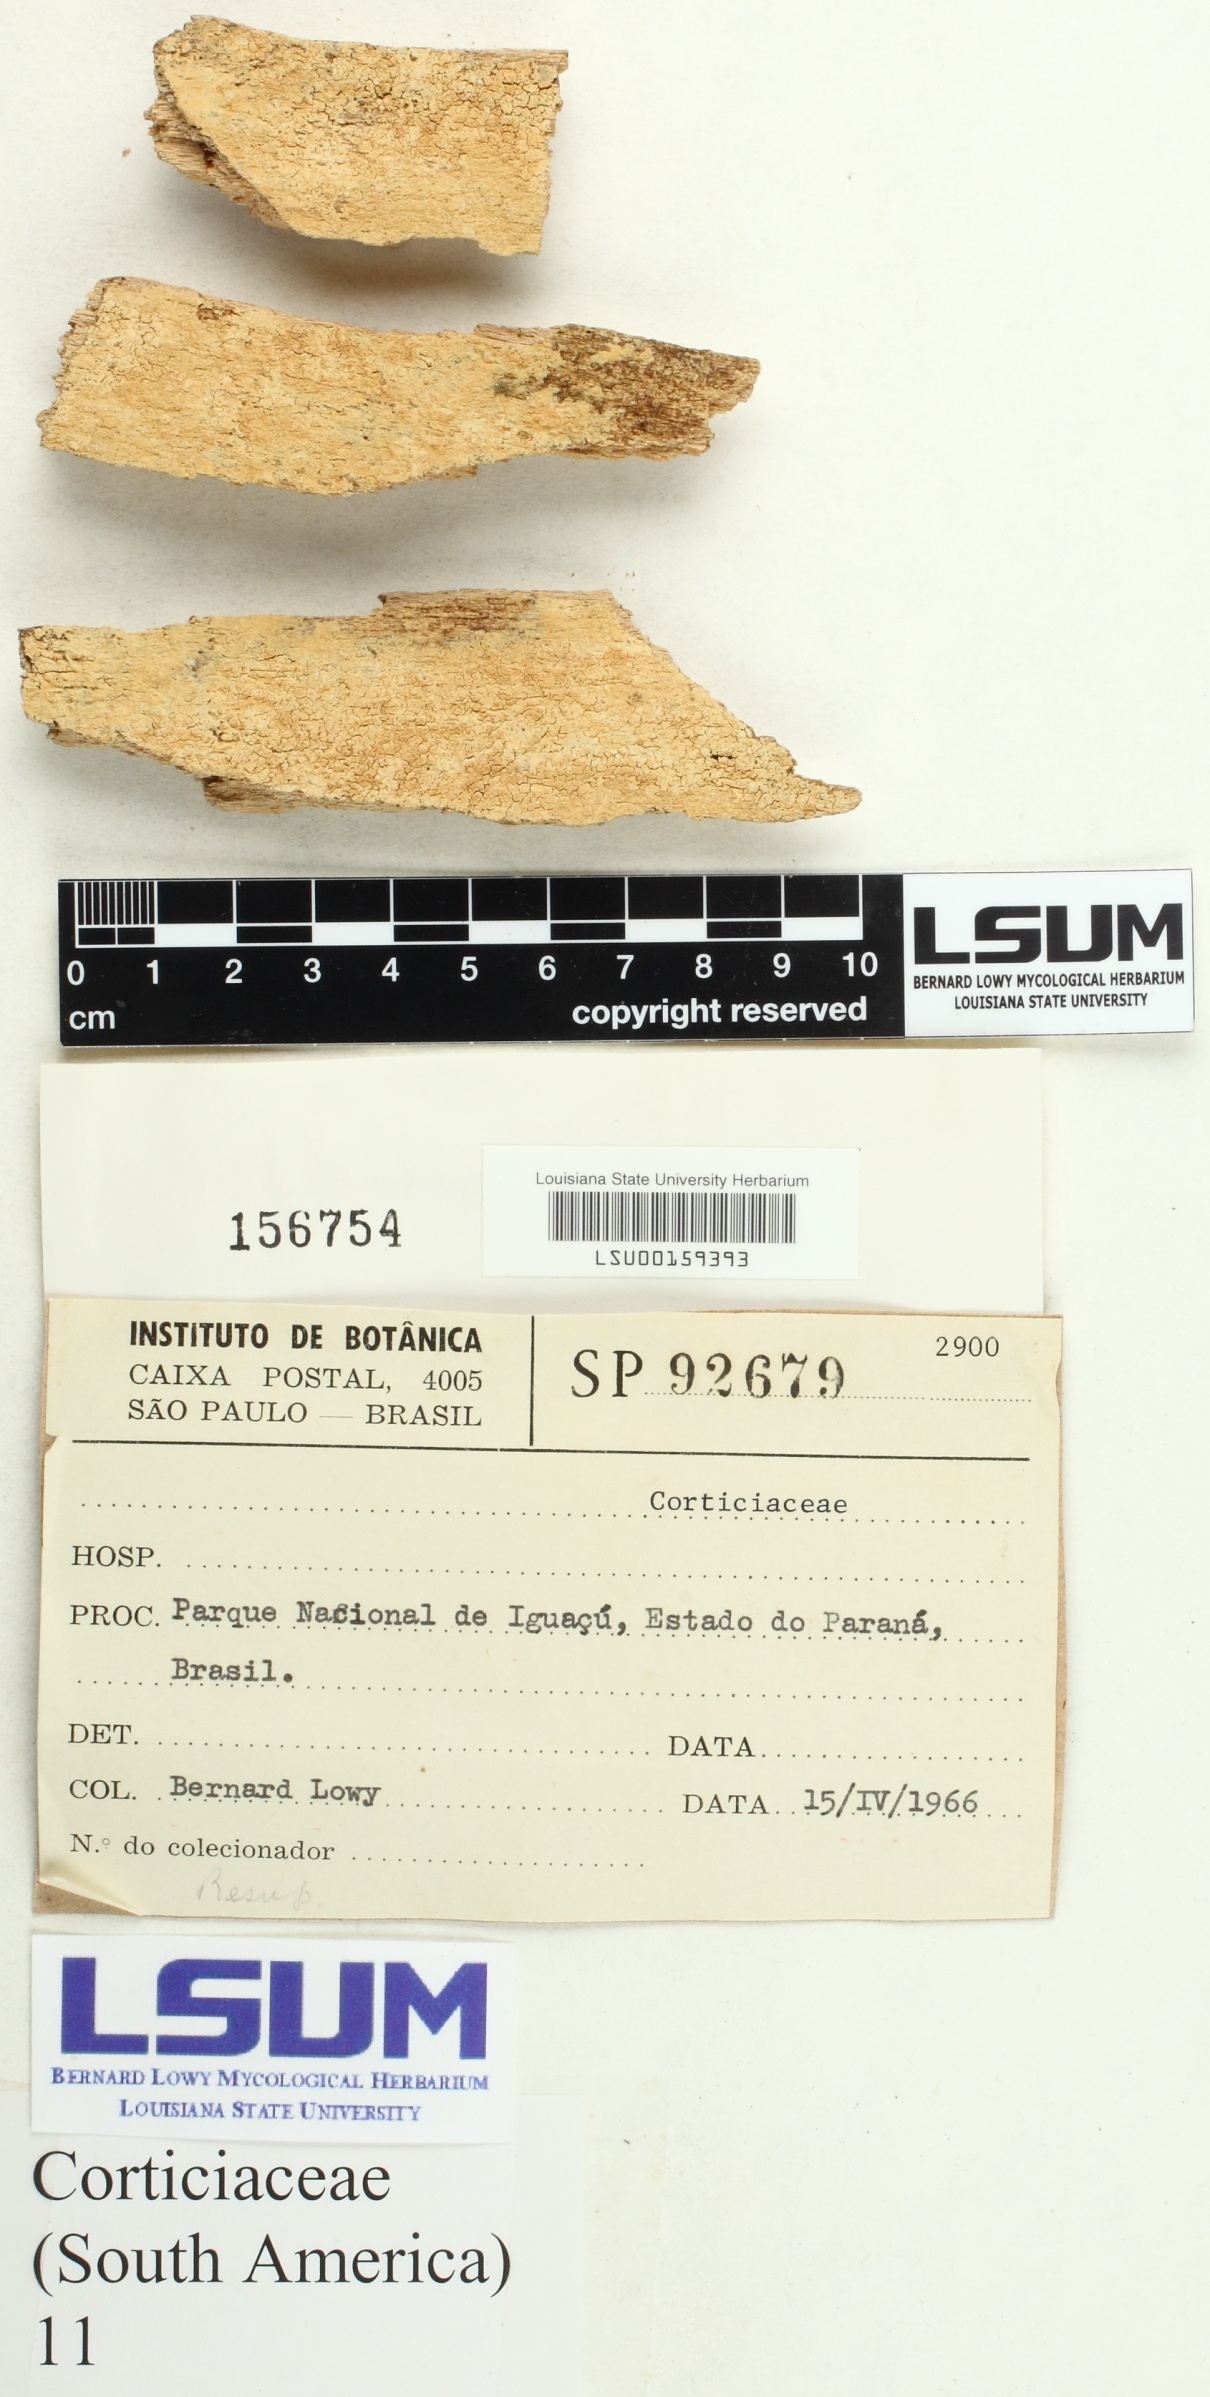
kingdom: Fungi
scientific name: Fungi
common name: Fungi
